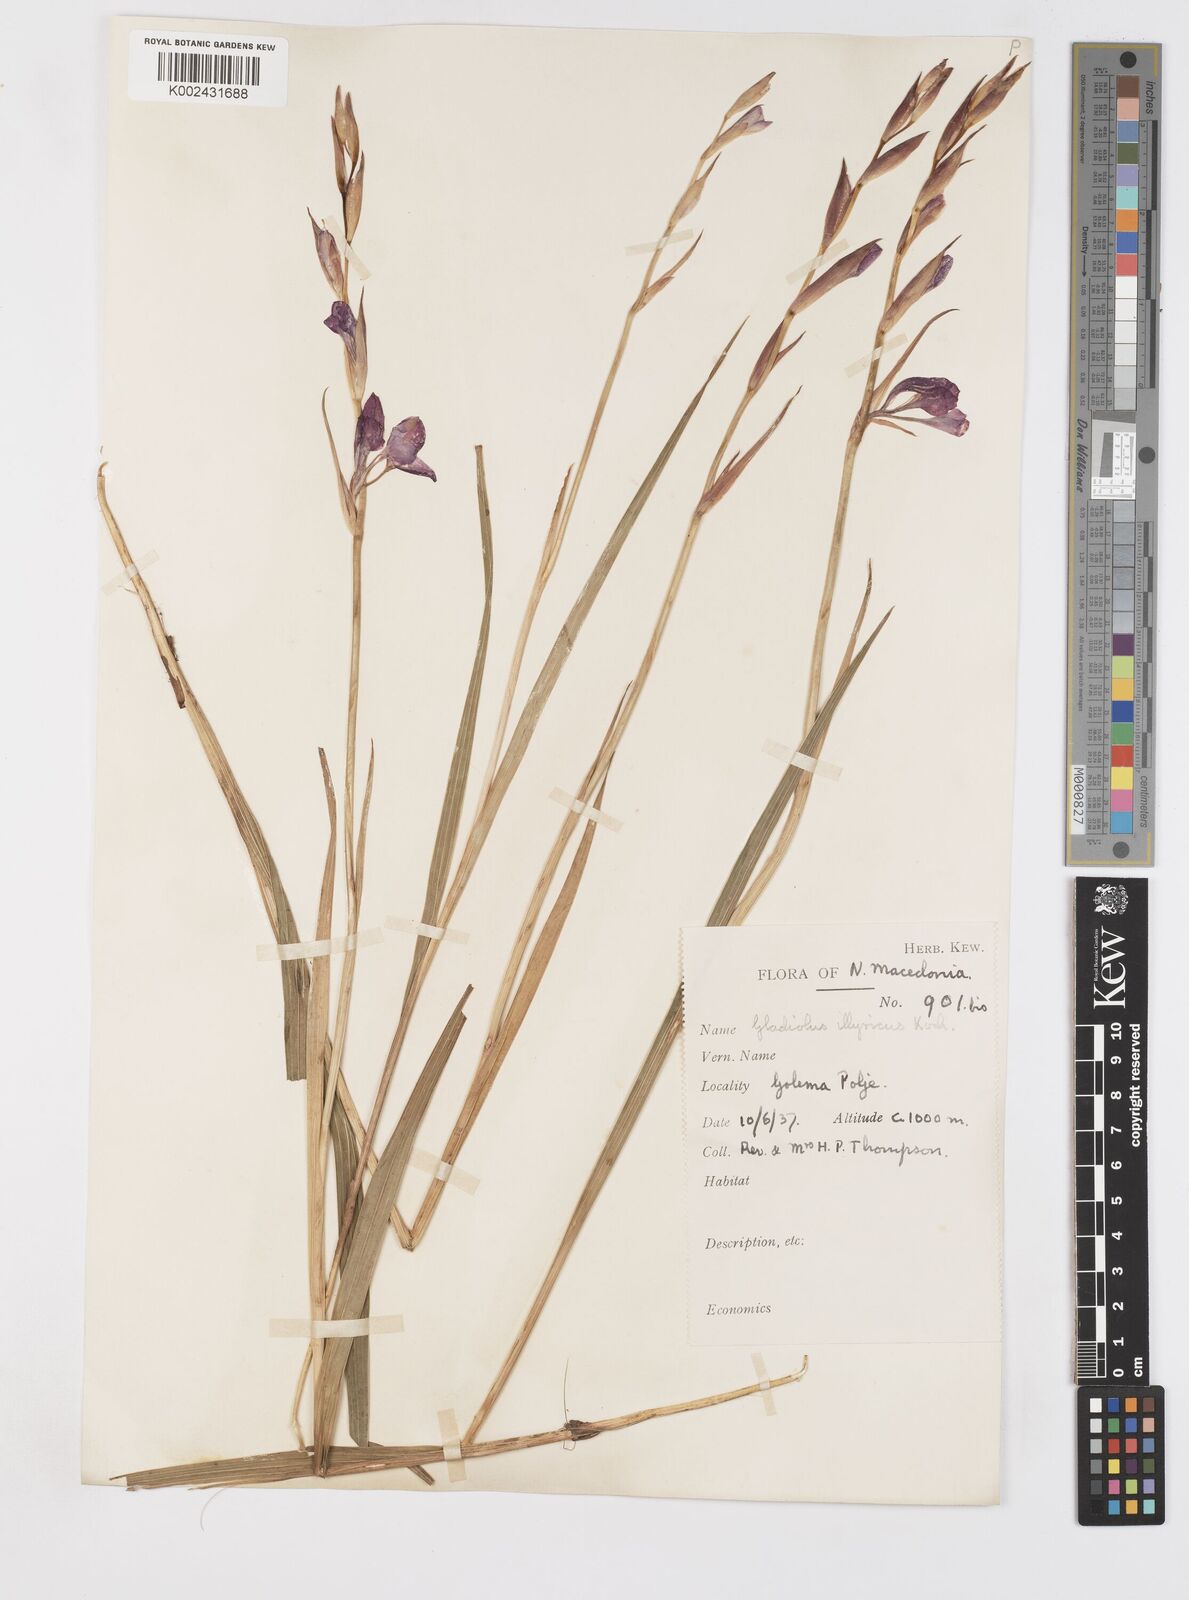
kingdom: Plantae
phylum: Tracheophyta
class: Liliopsida
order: Asparagales
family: Iridaceae
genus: Gladiolus
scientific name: Gladiolus illyricus
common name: Wild gladiolus
